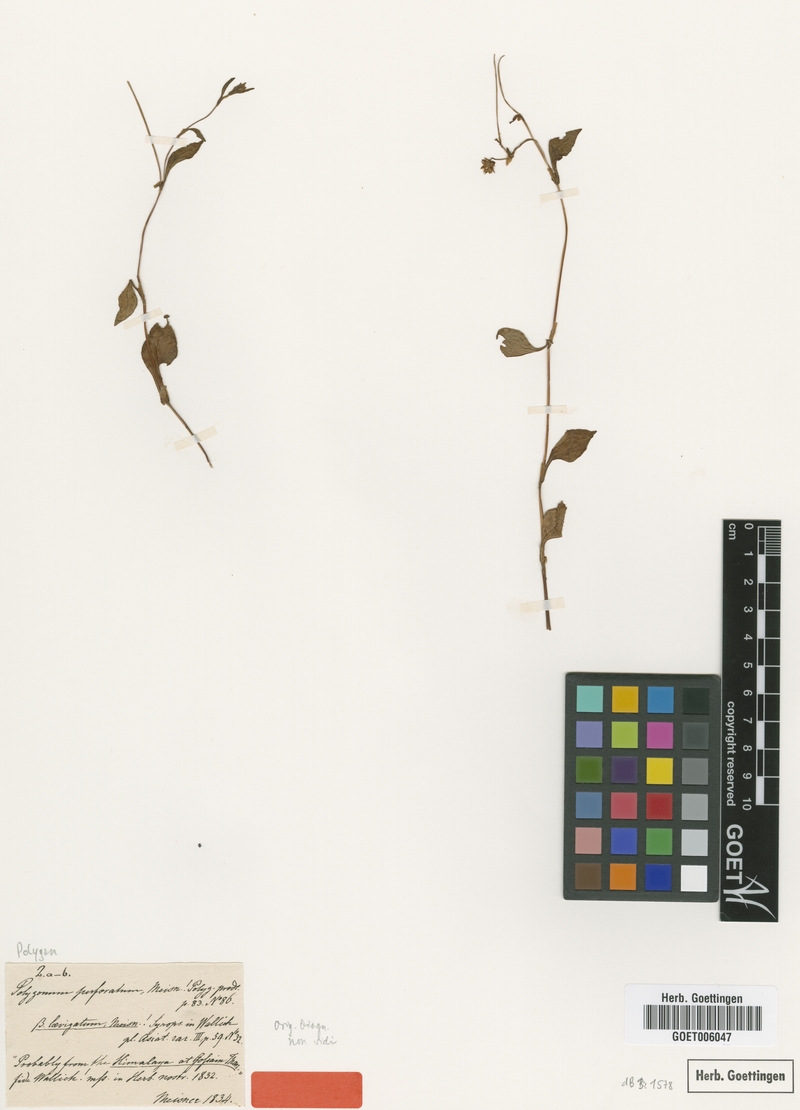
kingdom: Plantae
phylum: Tracheophyta
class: Magnoliopsida
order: Caryophyllales
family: Polygonaceae
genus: Persicaria
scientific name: Persicaria nepalensis
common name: Nepal persicaria
